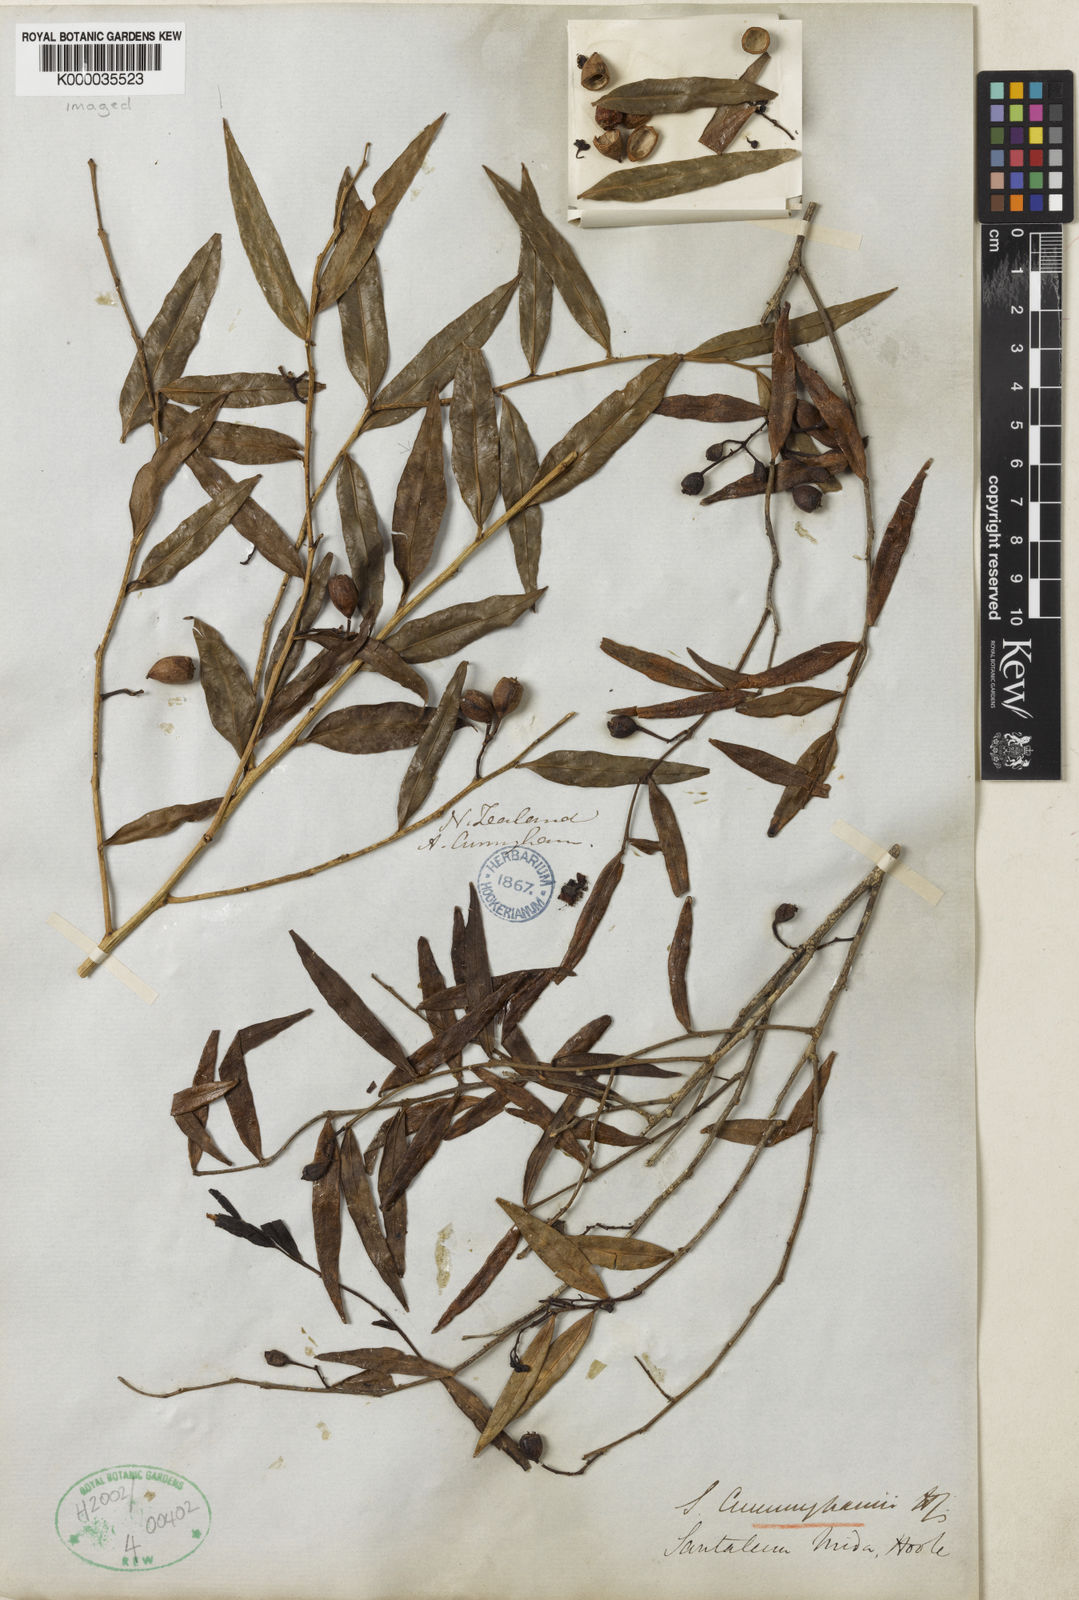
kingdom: Plantae
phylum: Tracheophyta
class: Magnoliopsida
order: Santalales
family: Nanodeaceae
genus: Mida
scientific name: Mida salicifolia
